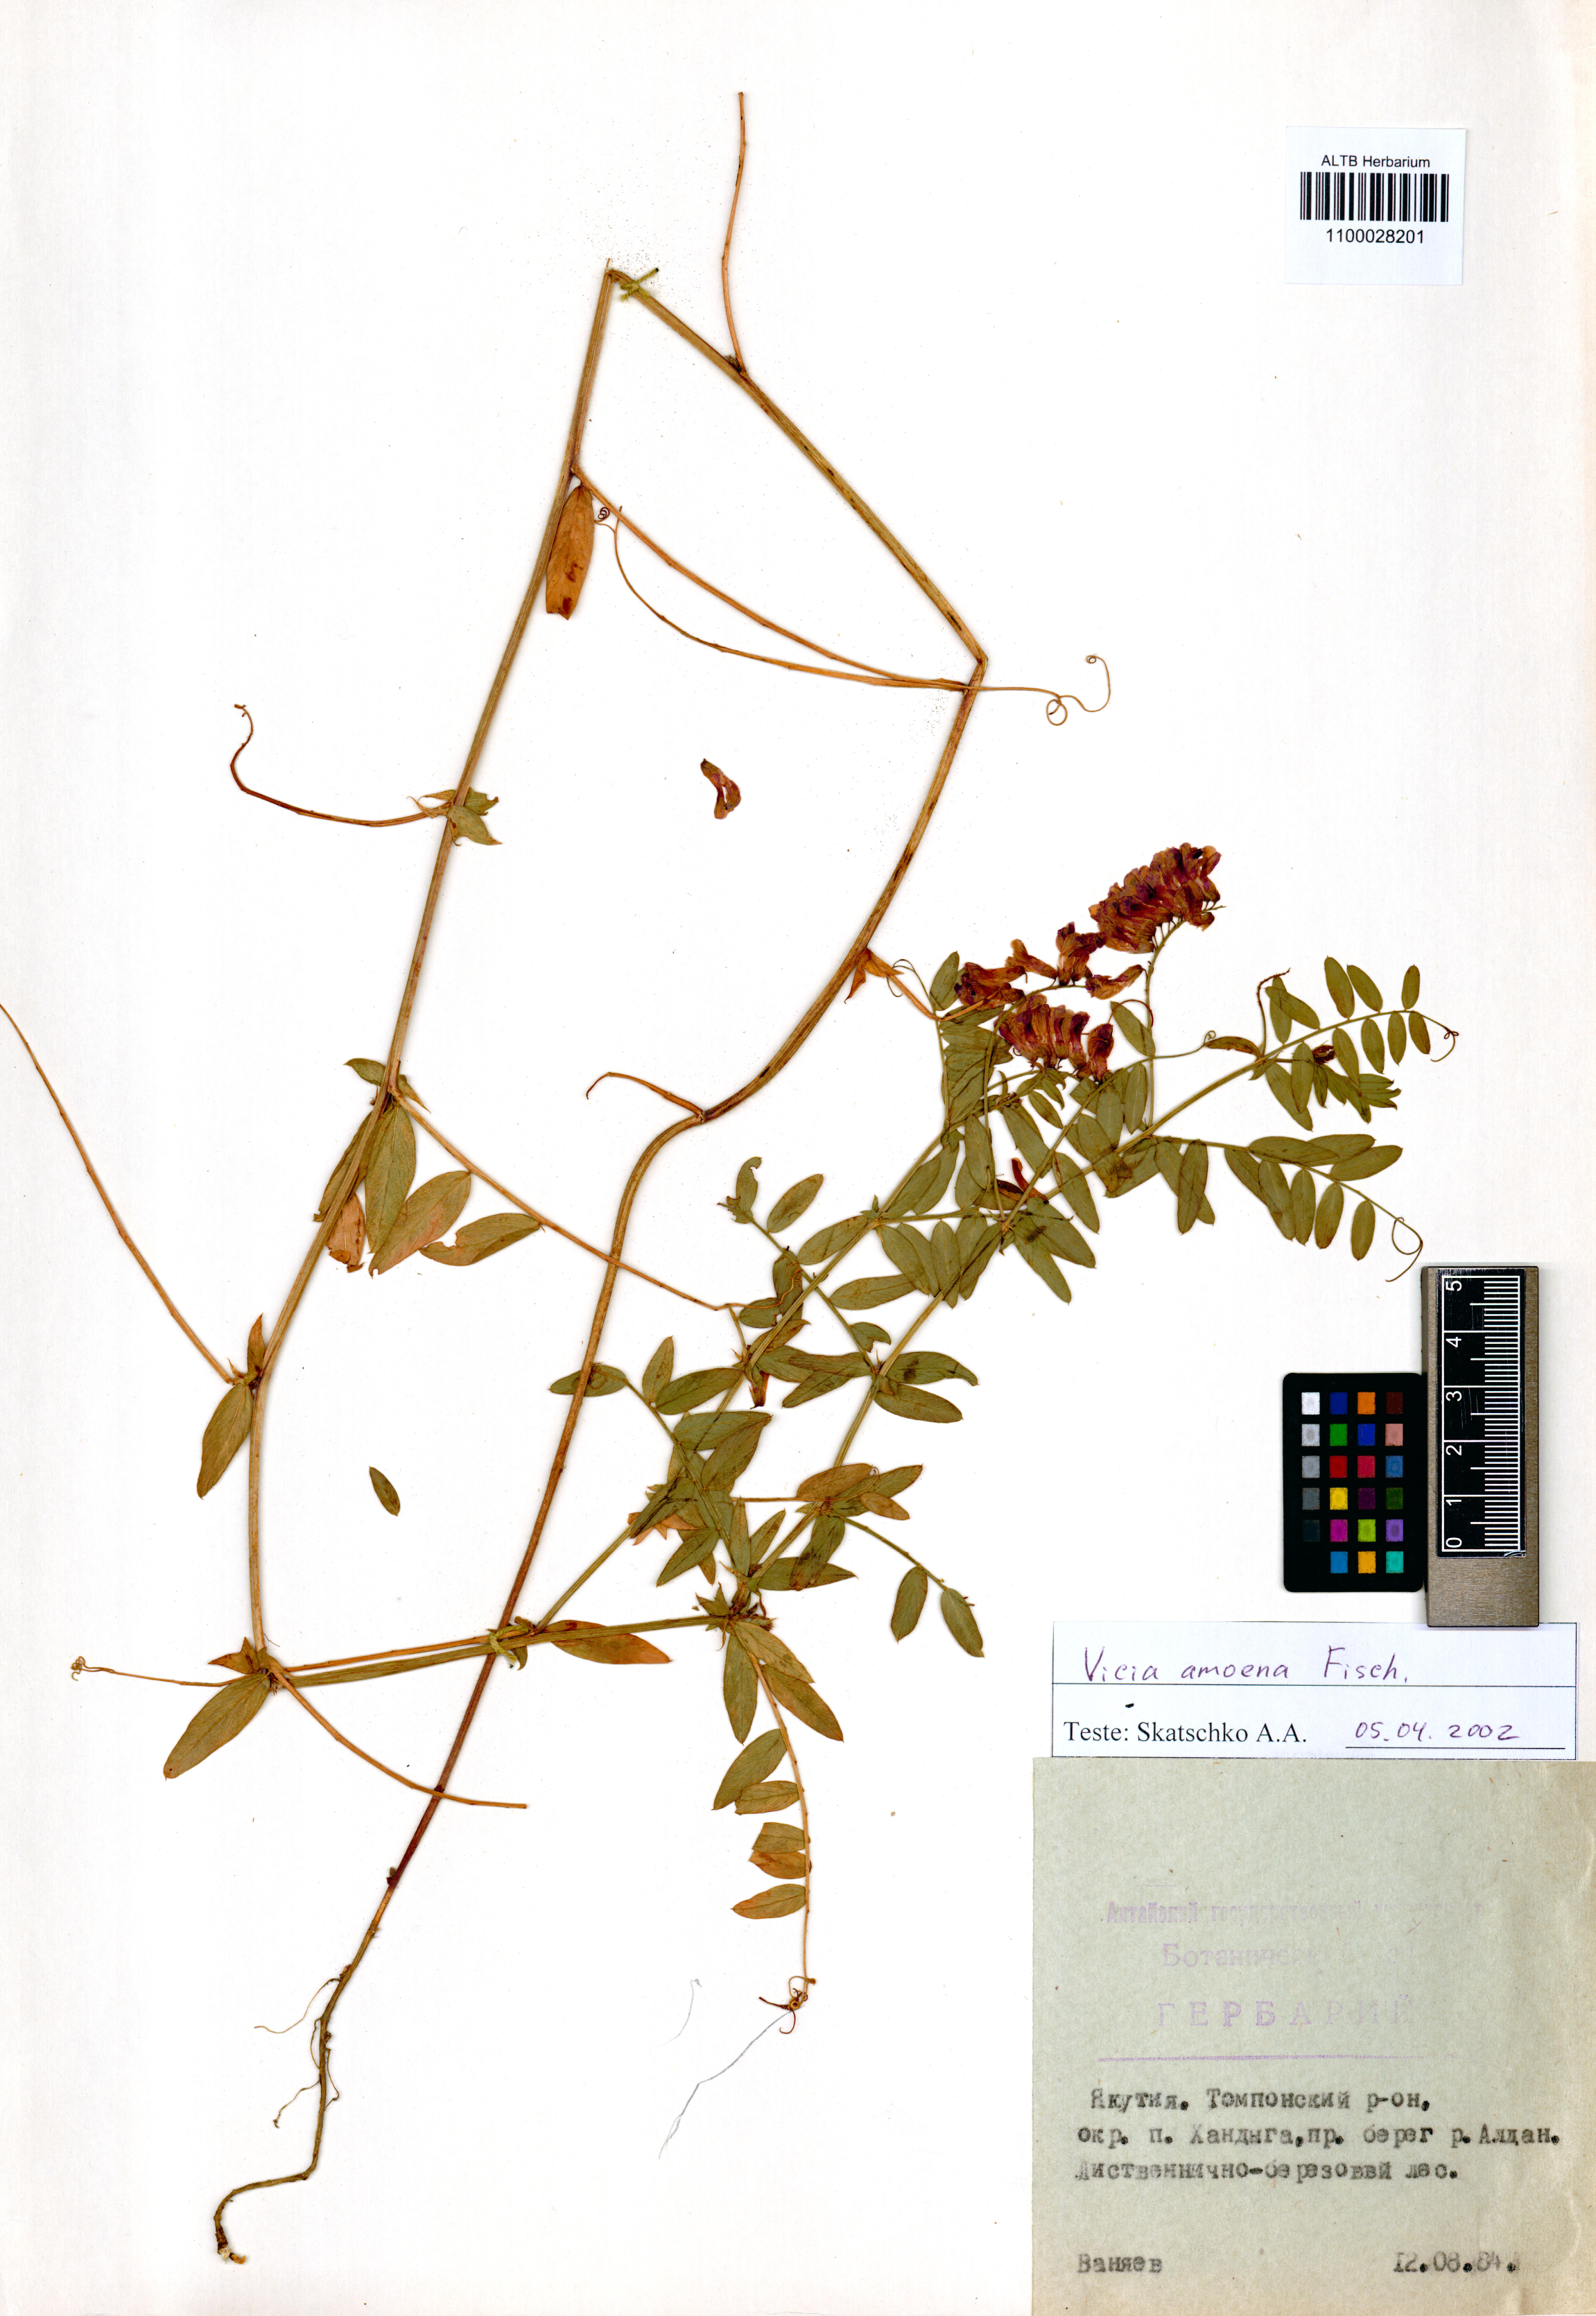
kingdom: Plantae
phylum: Tracheophyta
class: Magnoliopsida
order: Fabales
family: Fabaceae
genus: Vicia
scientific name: Vicia amoena
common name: Cheder ebs
